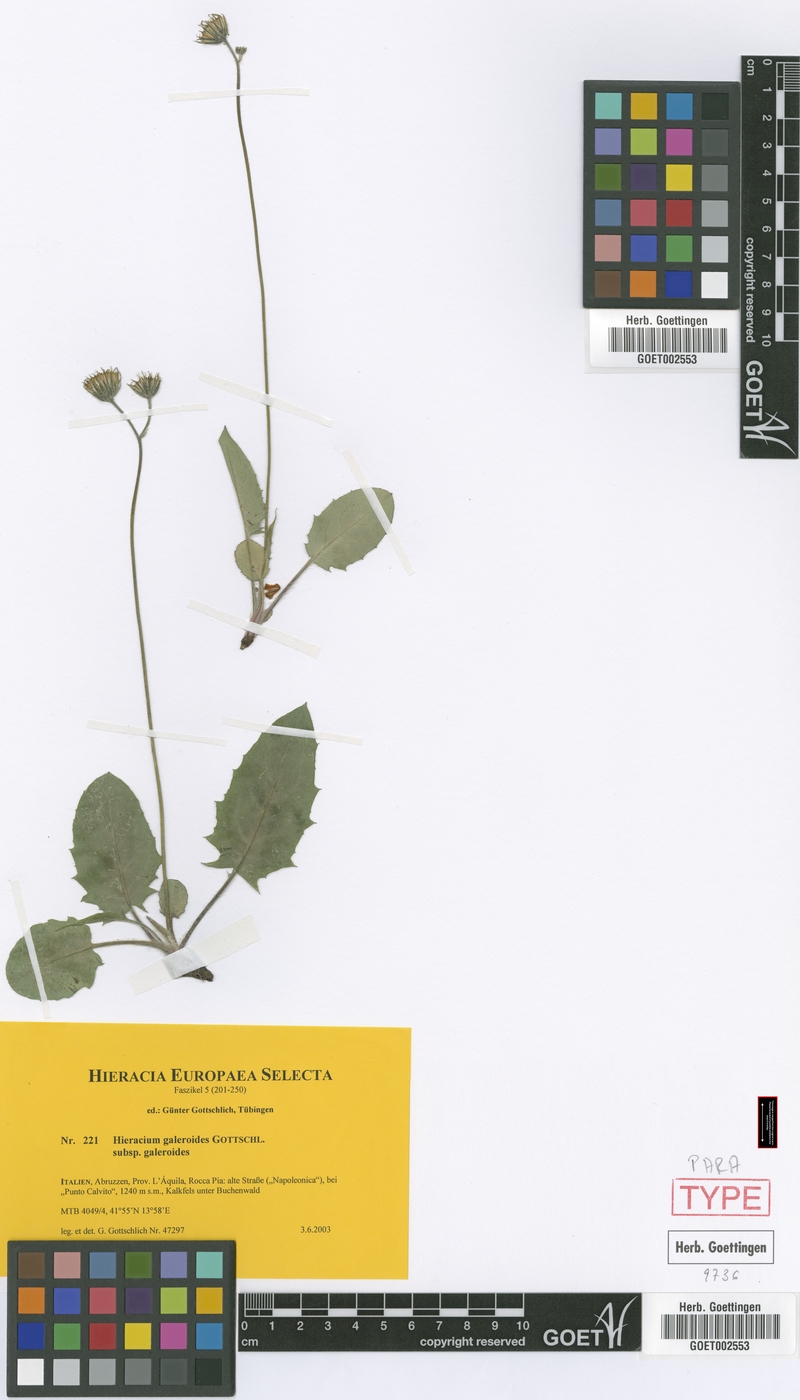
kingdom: Plantae
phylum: Tracheophyta
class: Magnoliopsida
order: Asterales
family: Asteraceae
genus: Hieracium
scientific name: Hieracium galeroides
